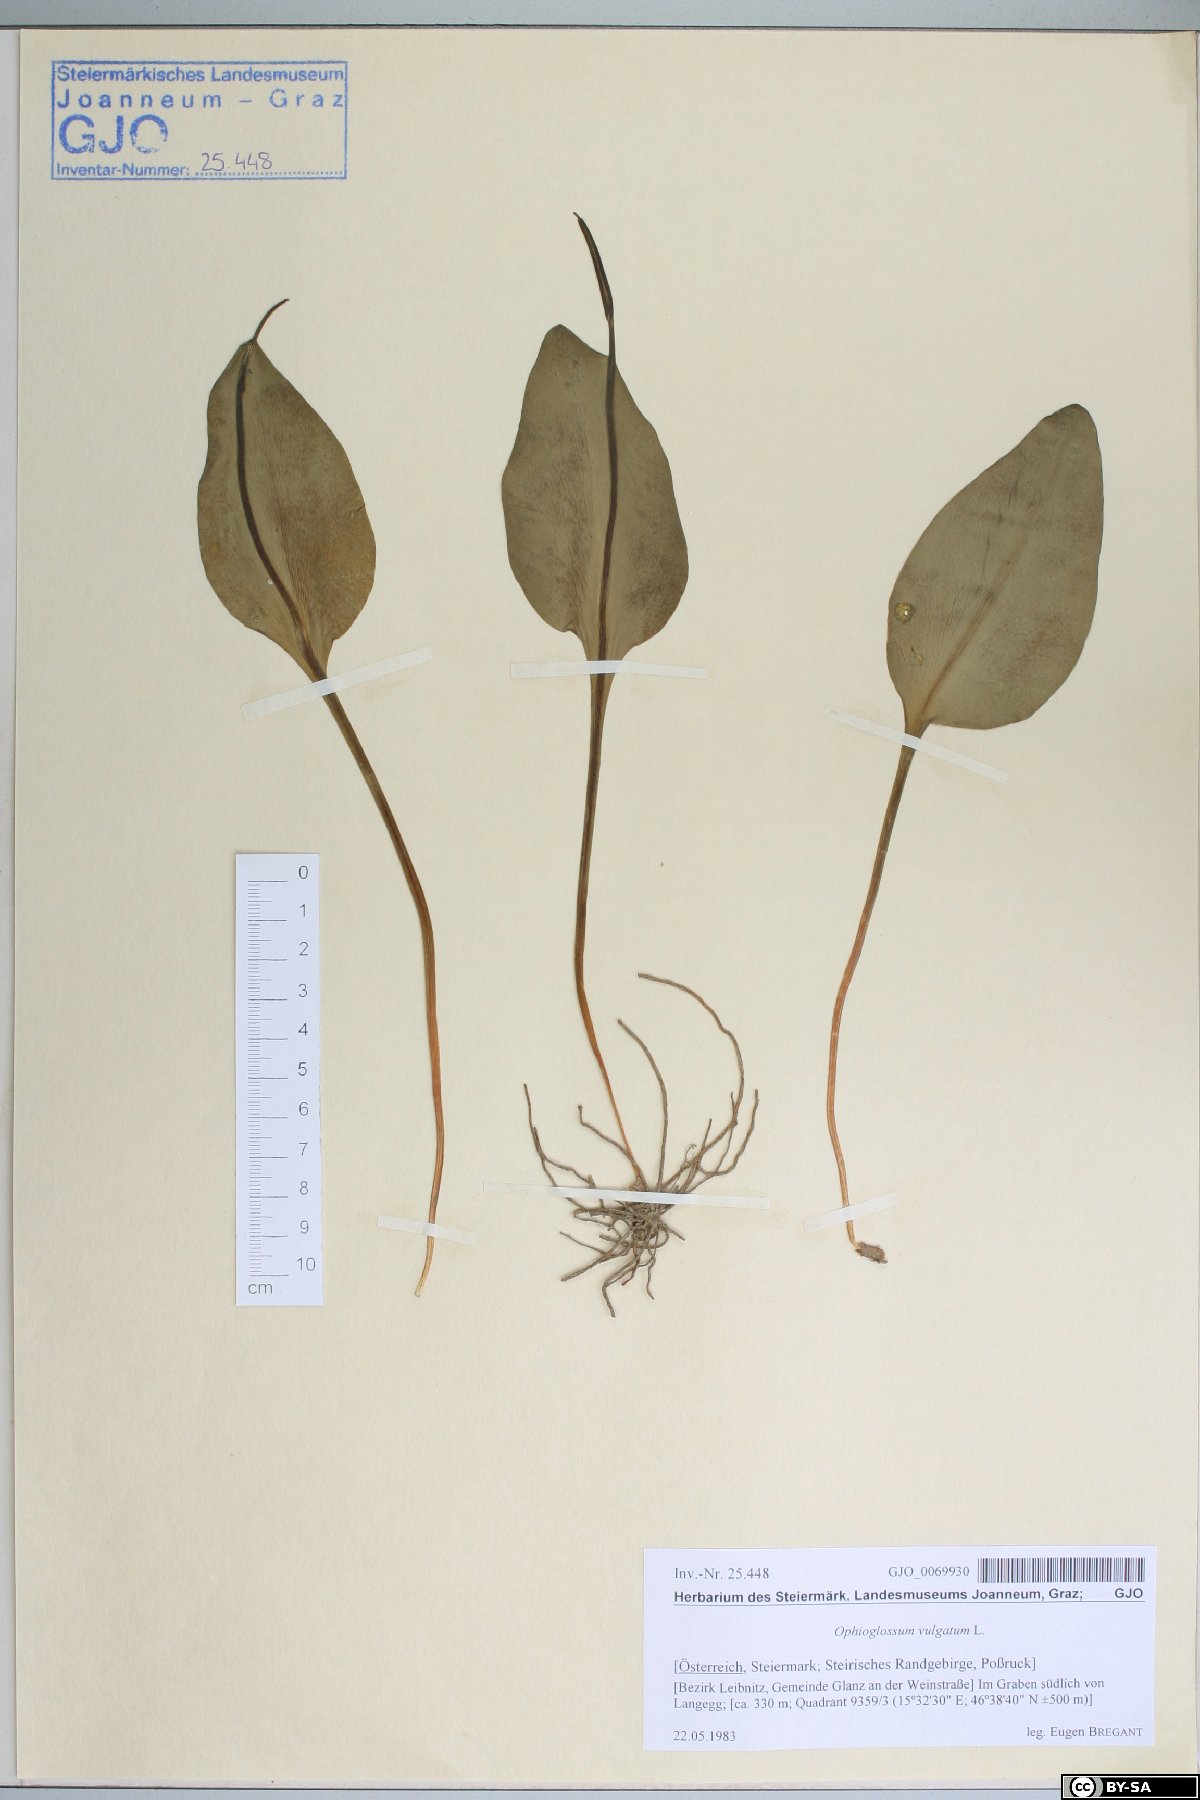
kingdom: Plantae
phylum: Tracheophyta
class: Polypodiopsida
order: Ophioglossales
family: Ophioglossaceae
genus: Ophioglossum
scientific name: Ophioglossum vulgatum
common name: Adder's-tongue
